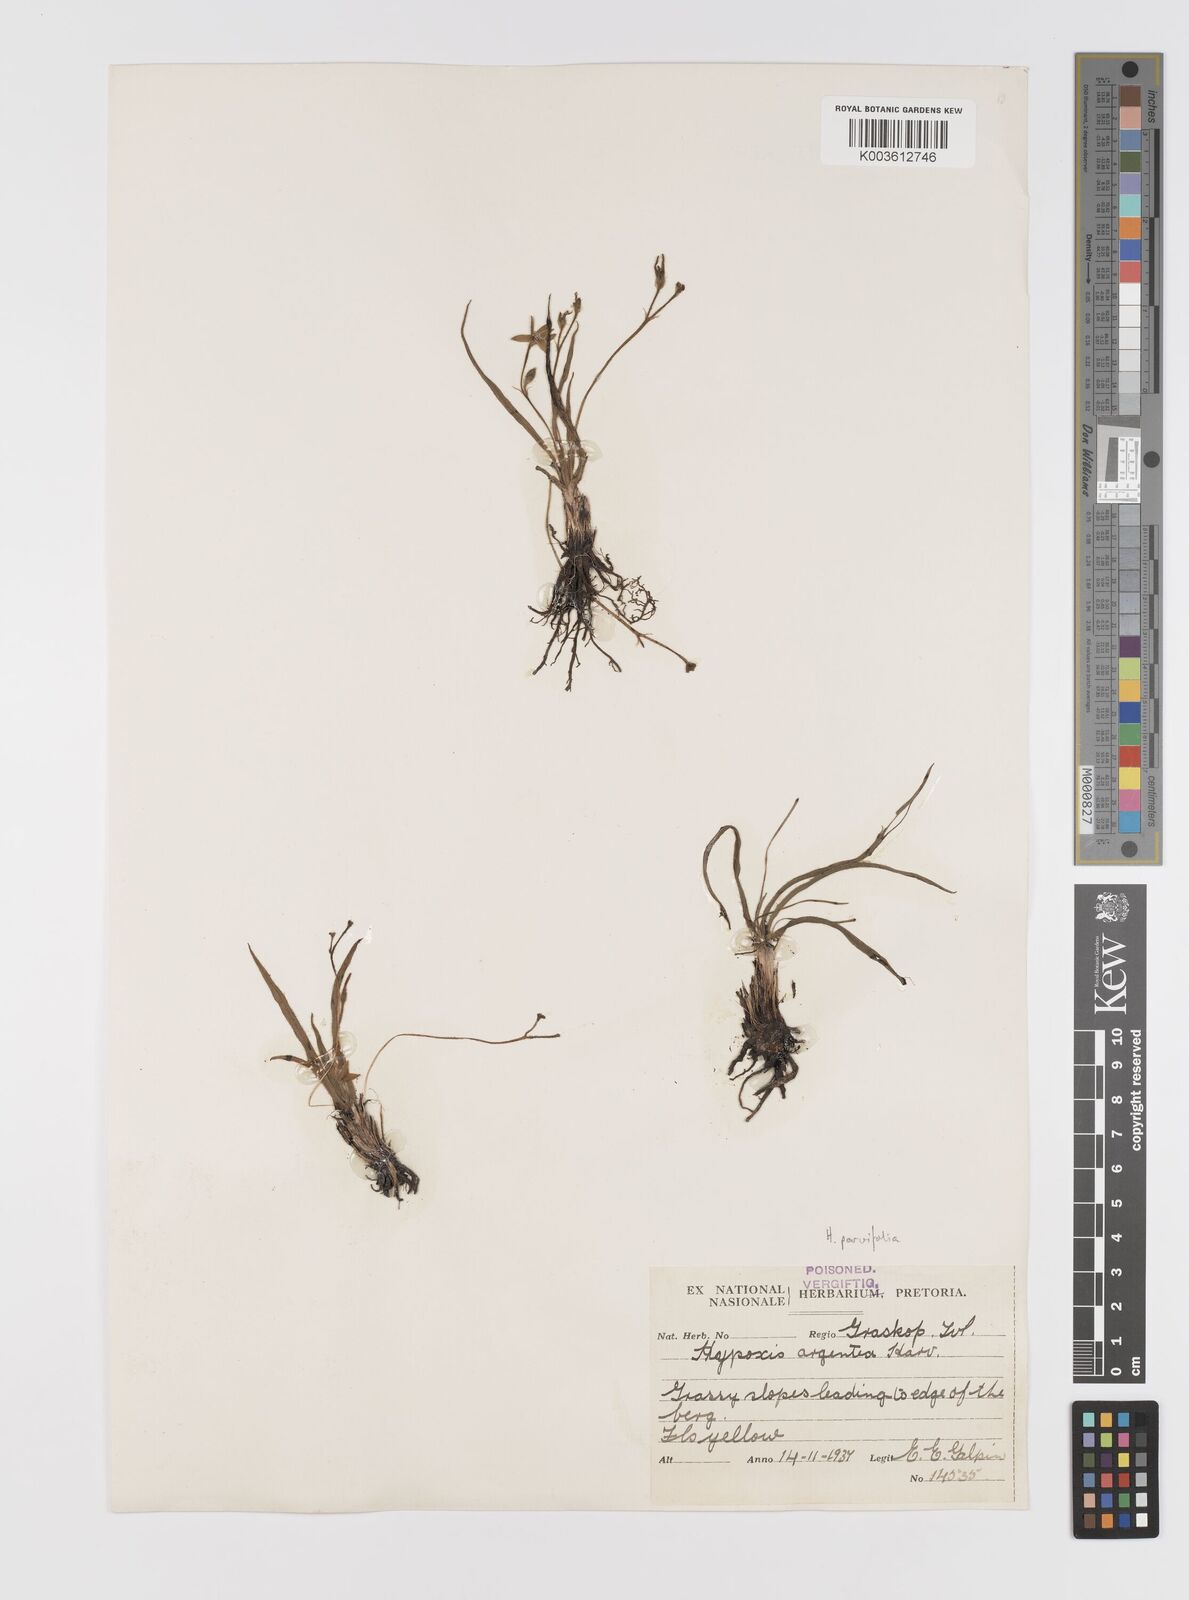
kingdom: Plantae
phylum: Tracheophyta
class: Liliopsida
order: Asparagales
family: Hypoxidaceae
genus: Hypoxis
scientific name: Hypoxis parvifolia
